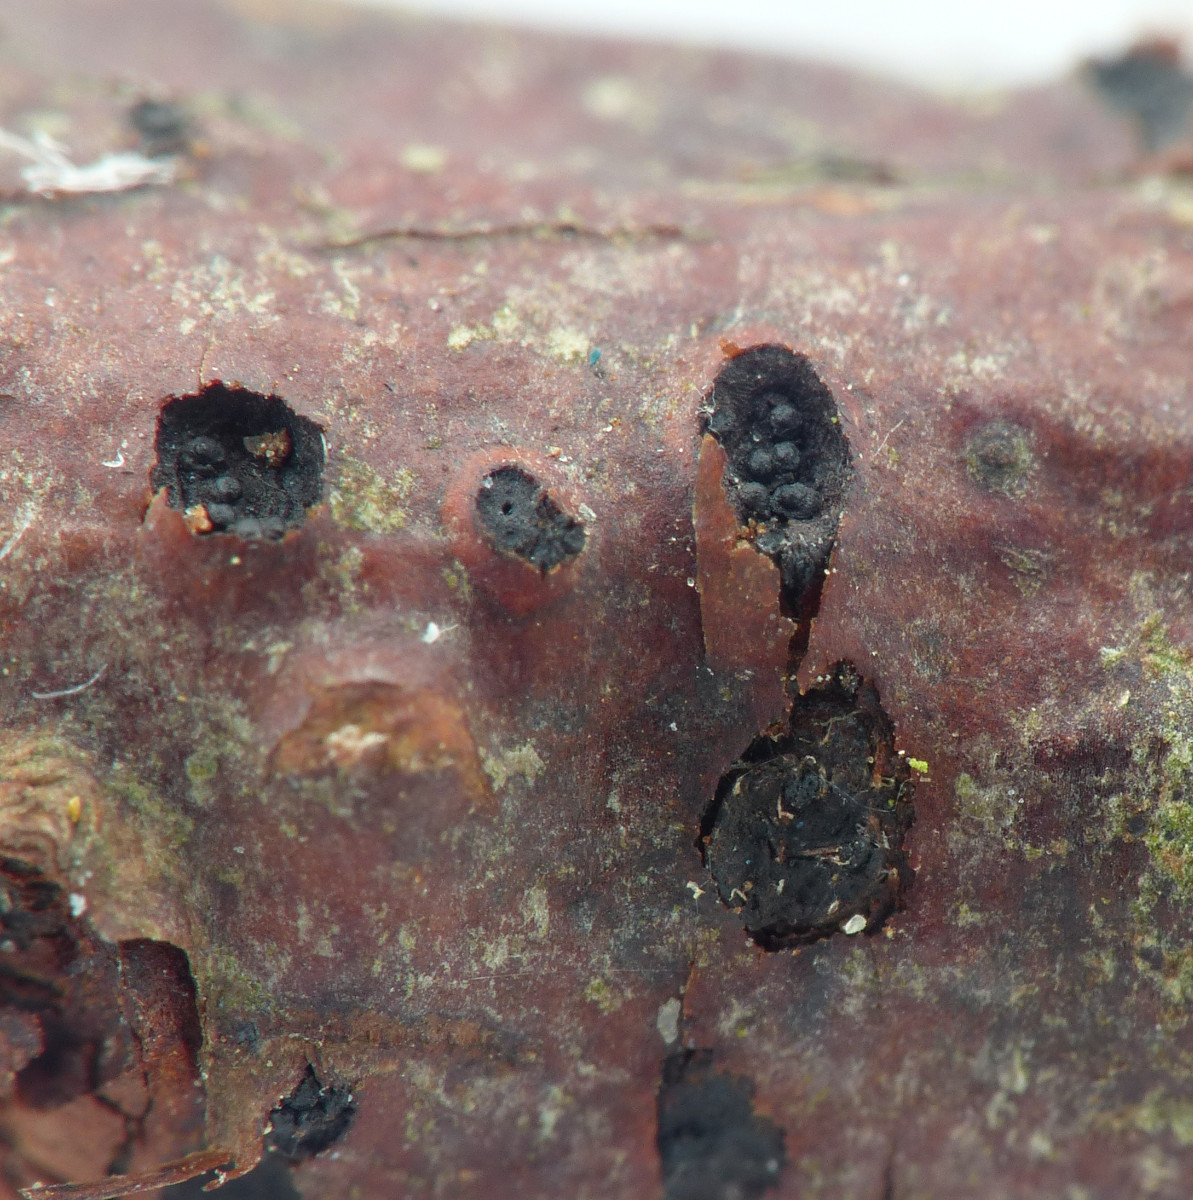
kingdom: Fungi
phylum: Ascomycota
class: Sordariomycetes
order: Diaporthales
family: Diaporthaceae
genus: Diaporthe
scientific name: Diaporthe decorticans
